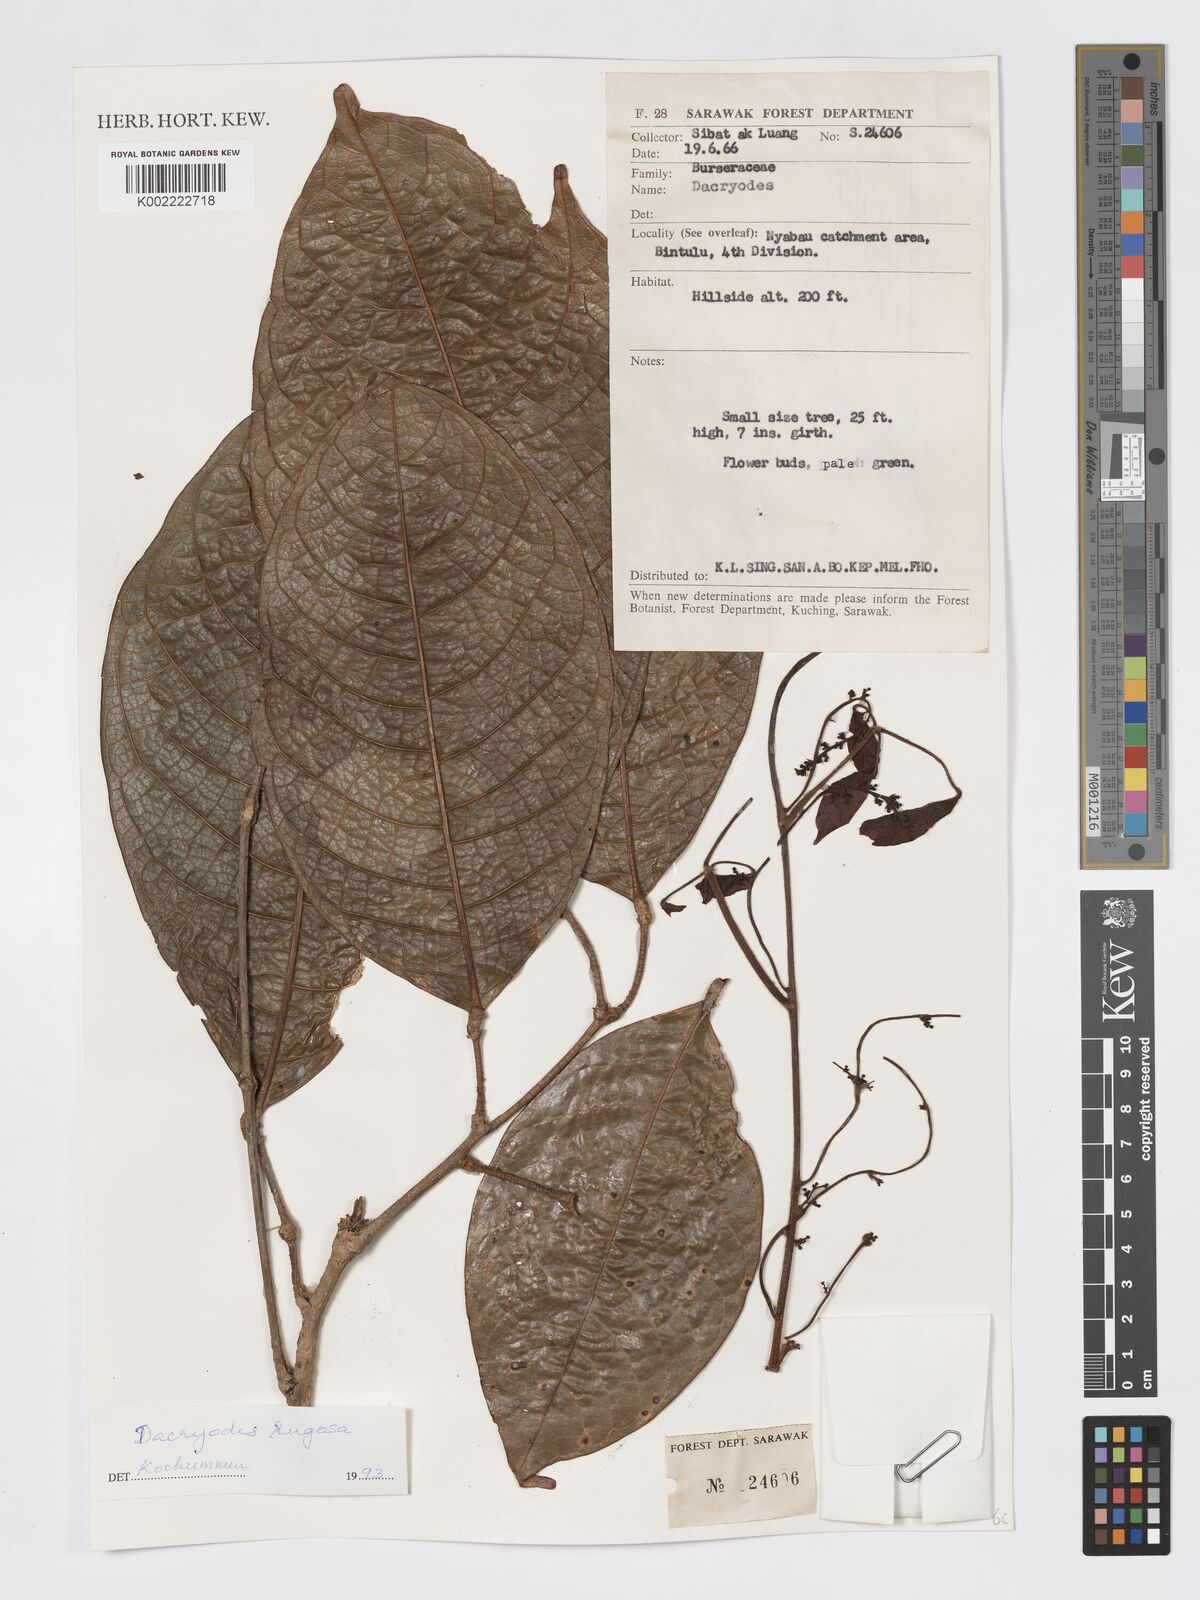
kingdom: Plantae
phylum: Tracheophyta
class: Magnoliopsida
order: Sapindales
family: Burseraceae
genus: Dacryodes
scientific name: Dacryodes rugosa
